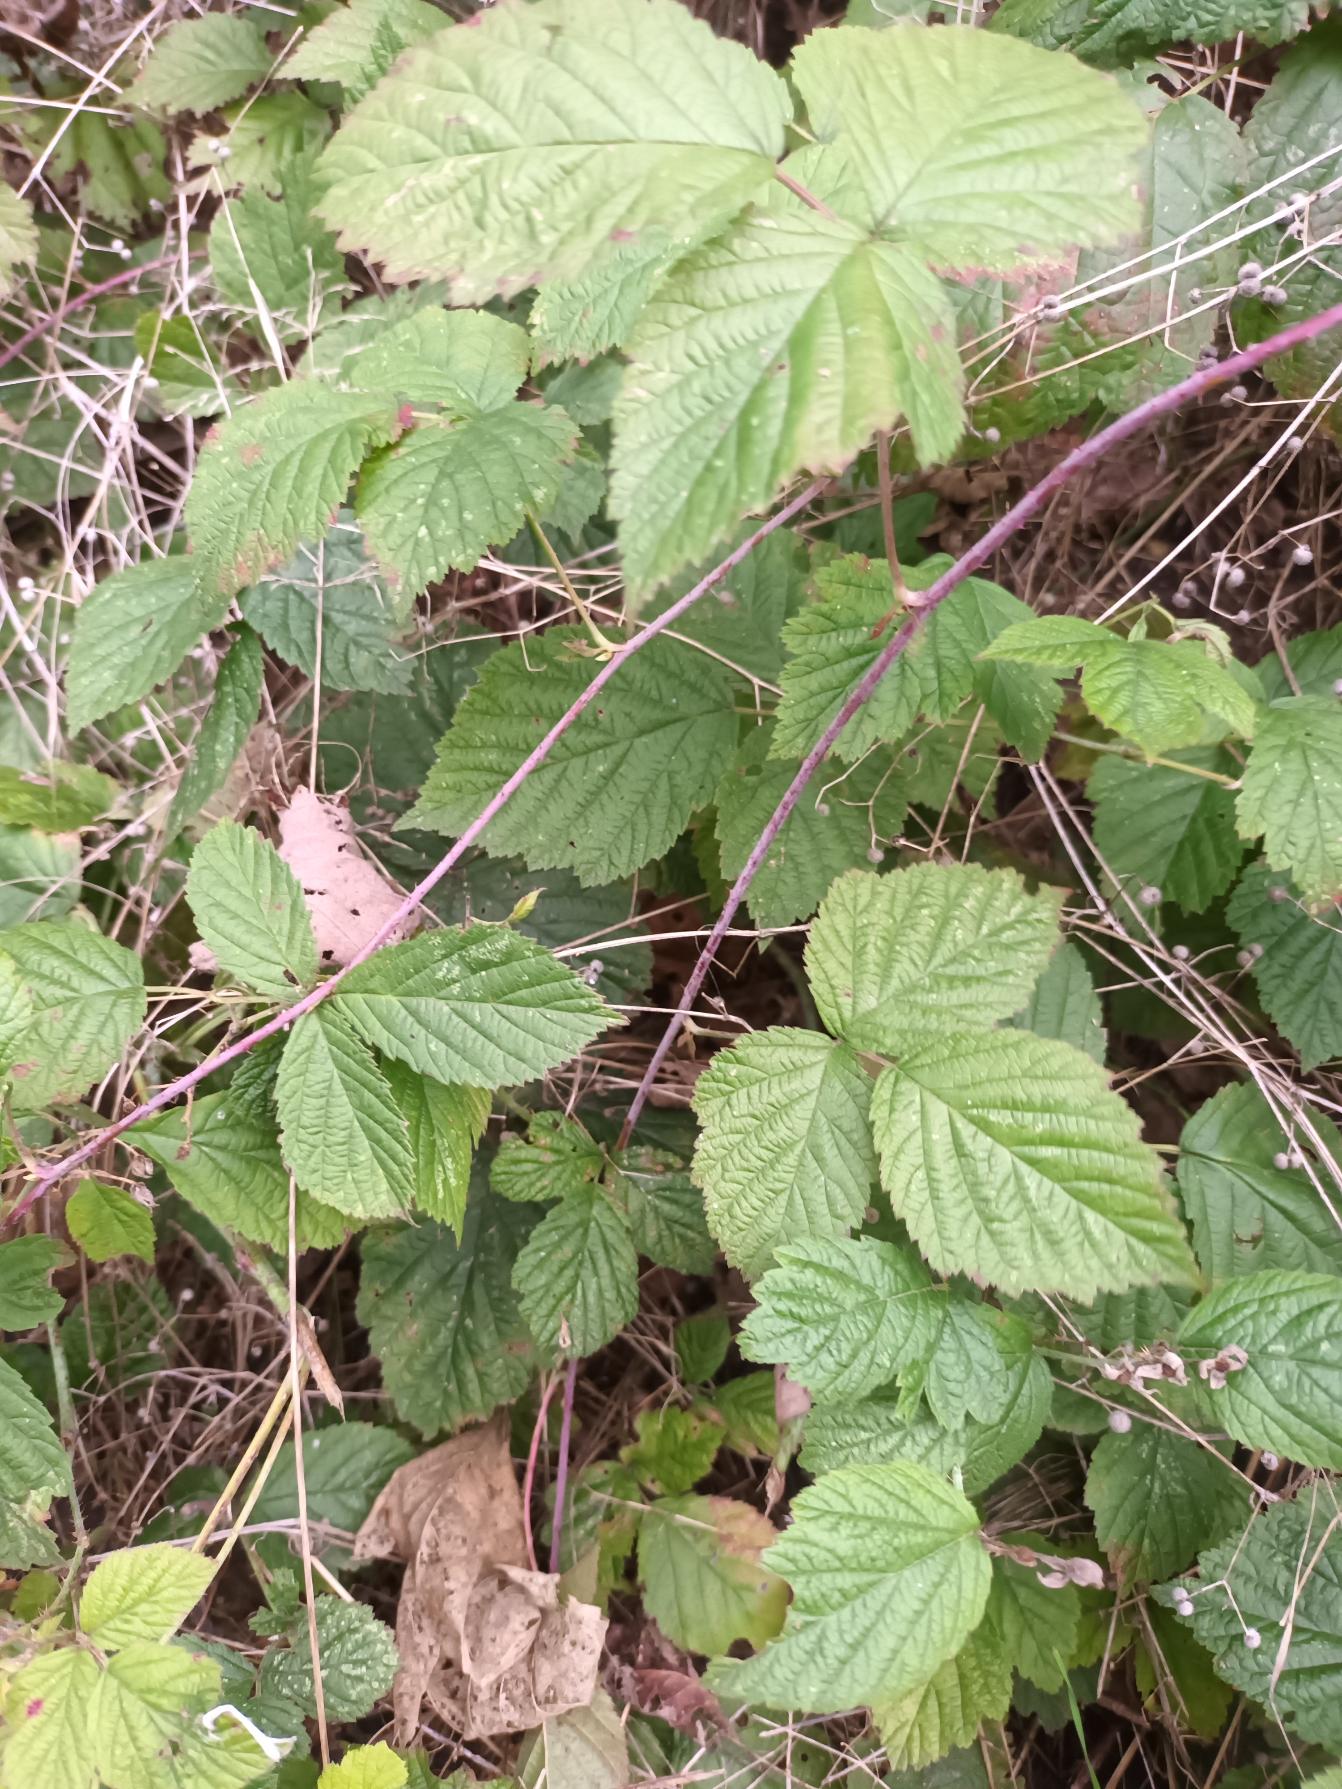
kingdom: Plantae
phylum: Tracheophyta
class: Magnoliopsida
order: Rosales
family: Rosaceae
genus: Rubus
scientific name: Rubus caesius
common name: Korbær
